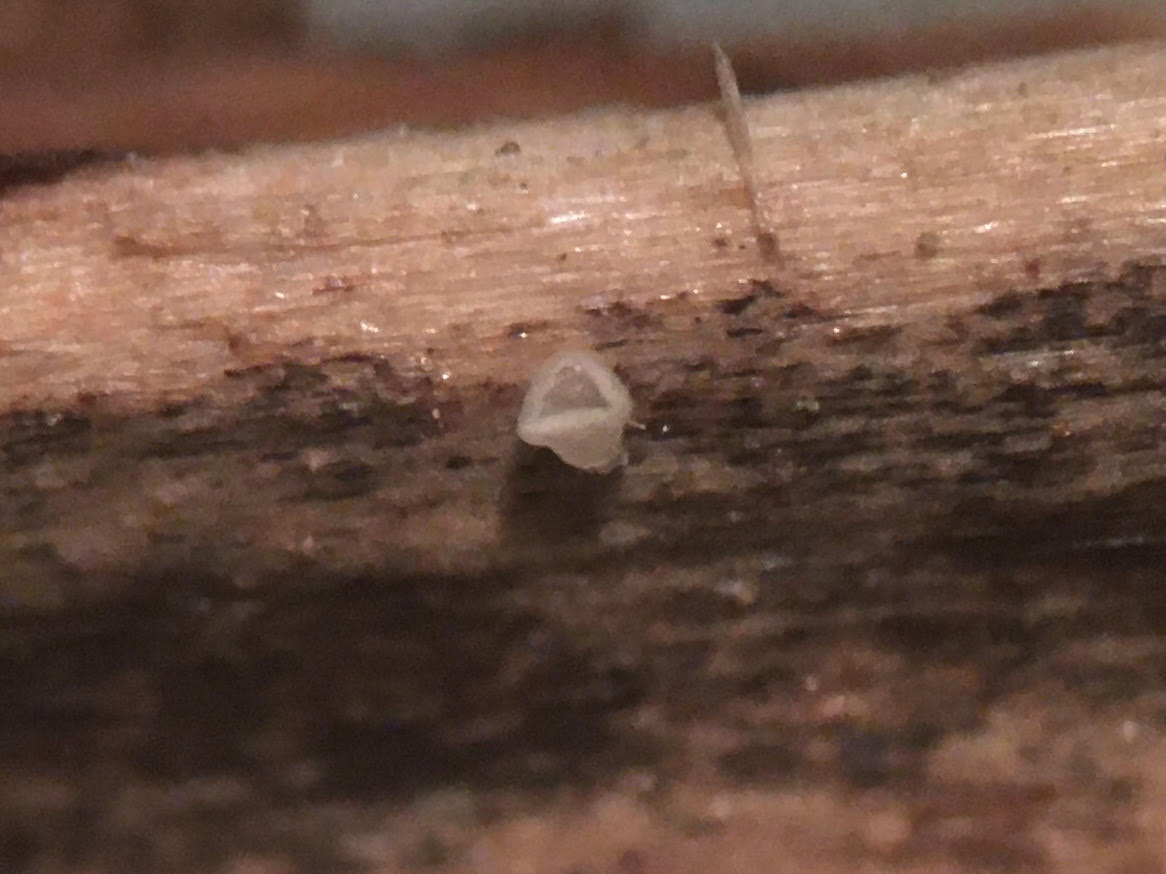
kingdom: Fungi
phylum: Ascomycota
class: Leotiomycetes
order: Helotiales
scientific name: Helotiales
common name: stilkskiveordenen
